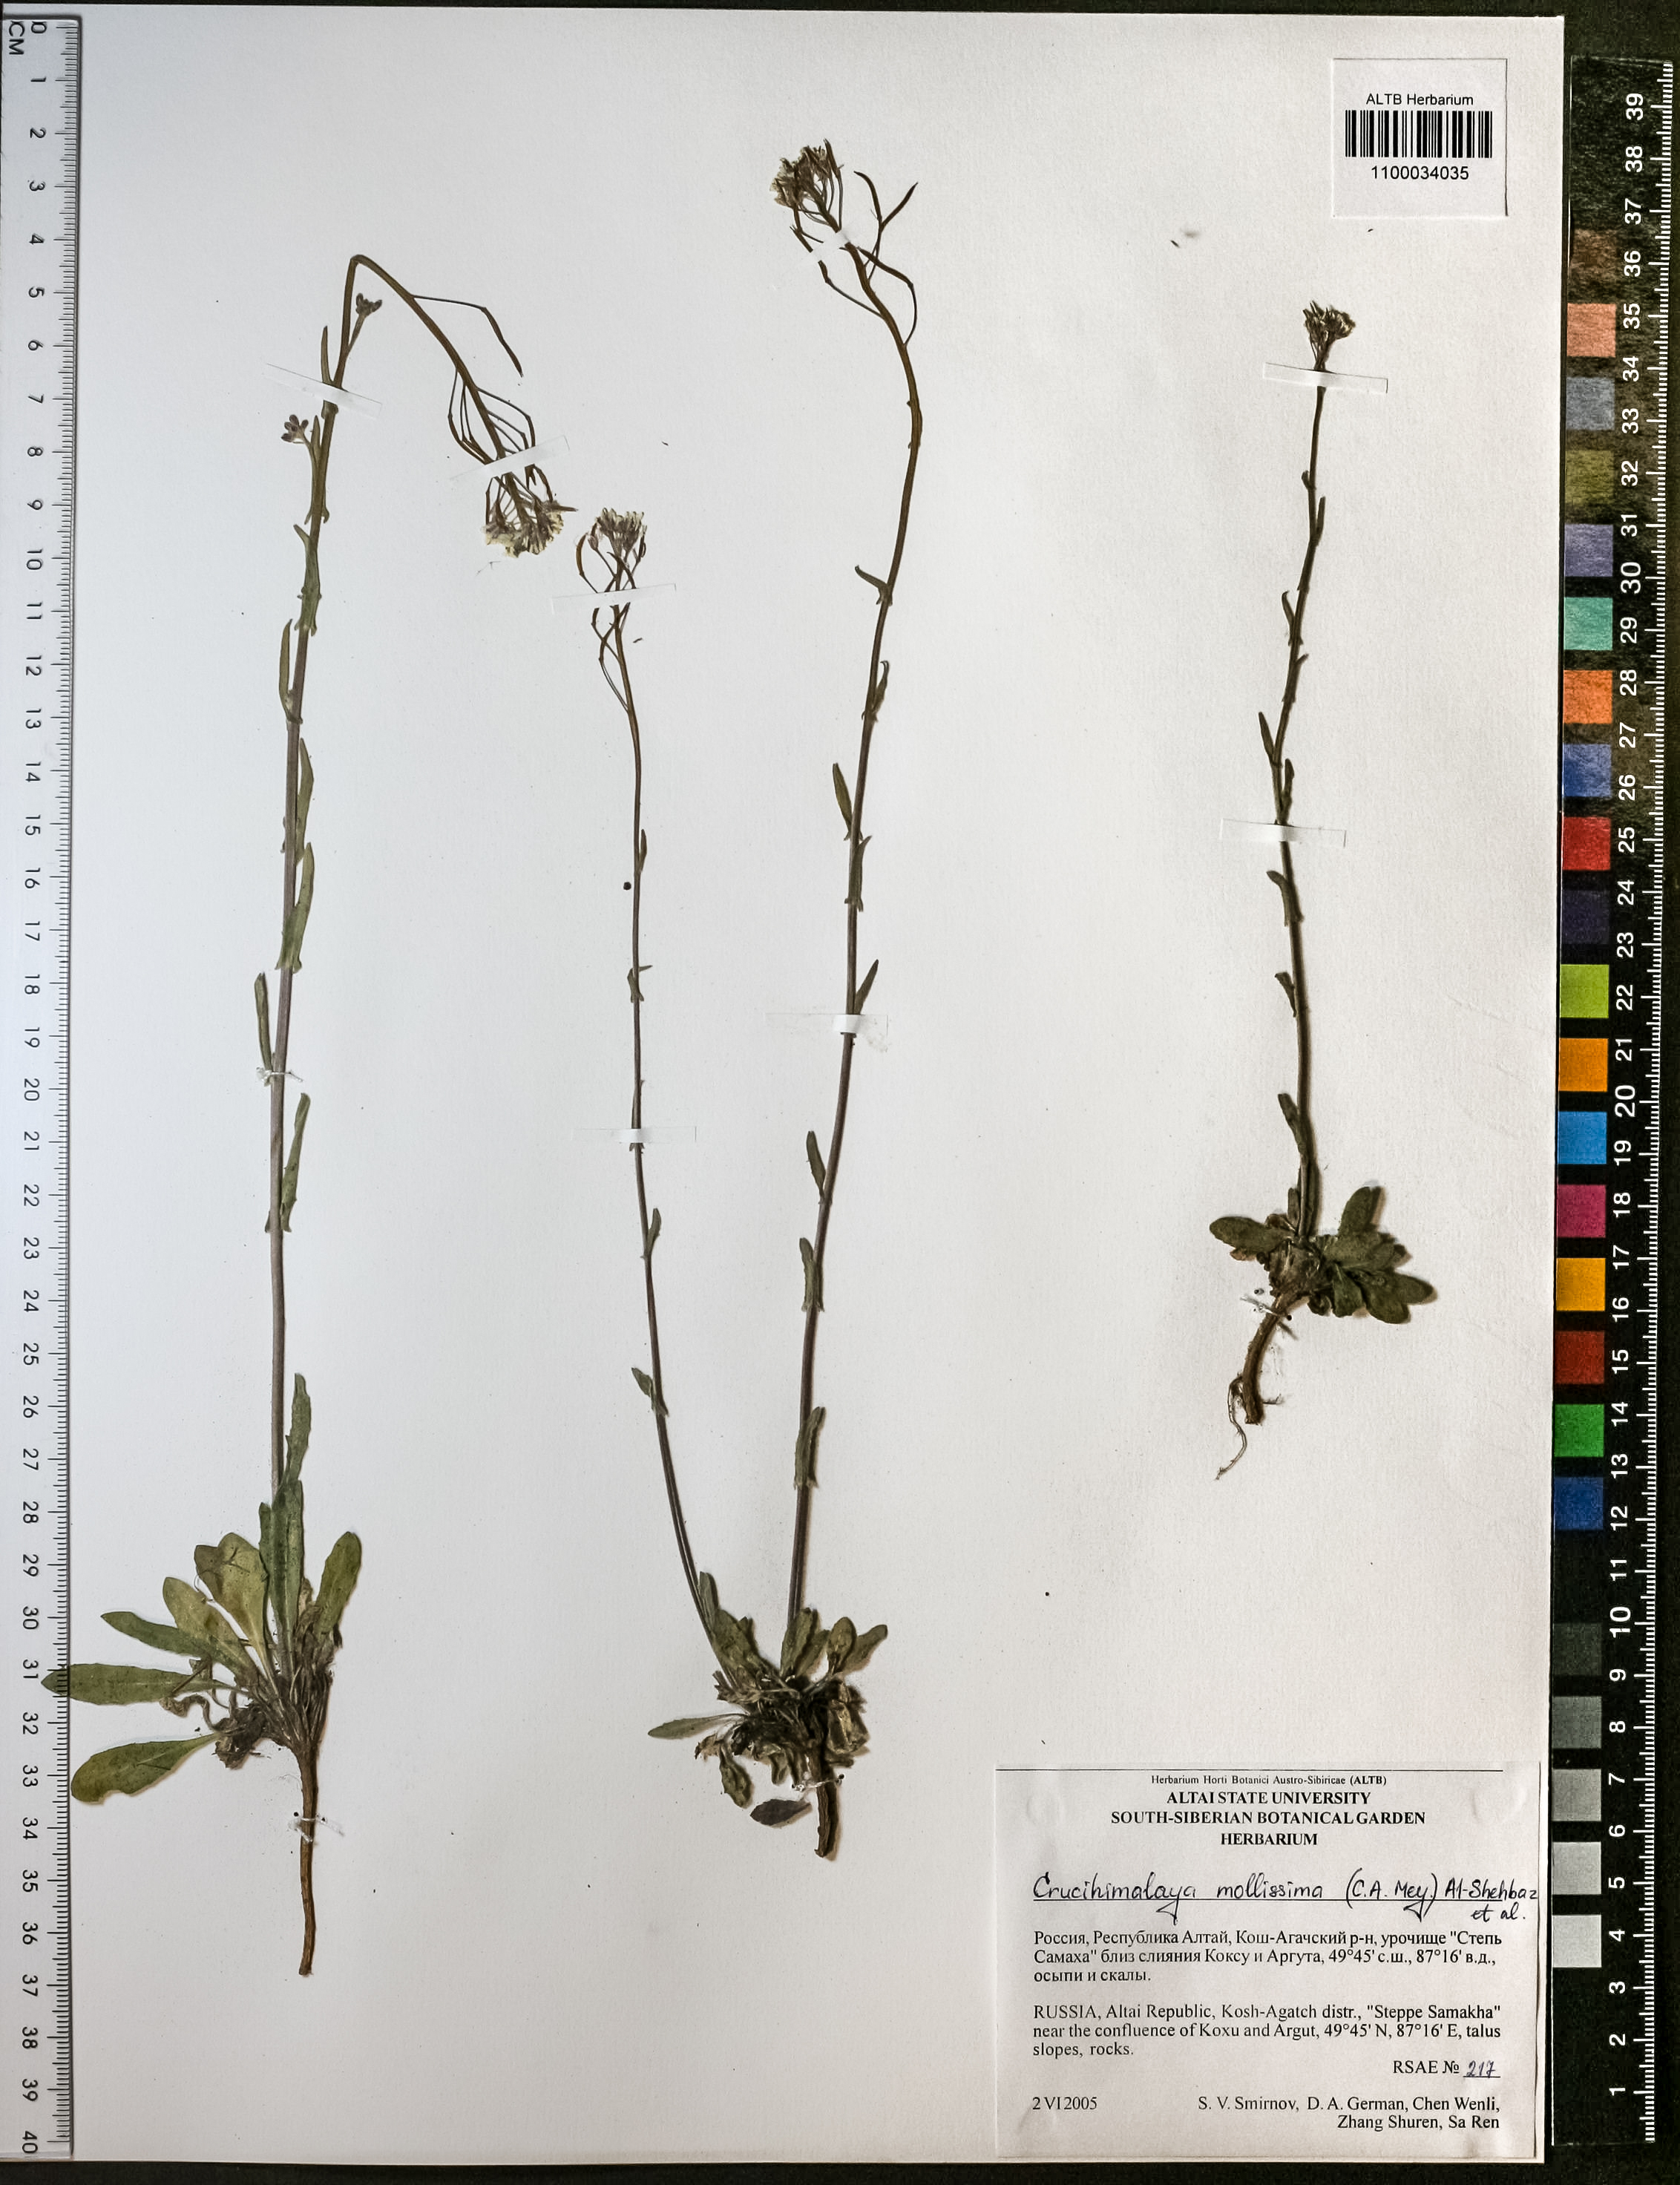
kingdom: Plantae
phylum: Tracheophyta
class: Magnoliopsida
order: Brassicales
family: Brassicaceae
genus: Crucihimalaya
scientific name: Crucihimalaya mollissima
